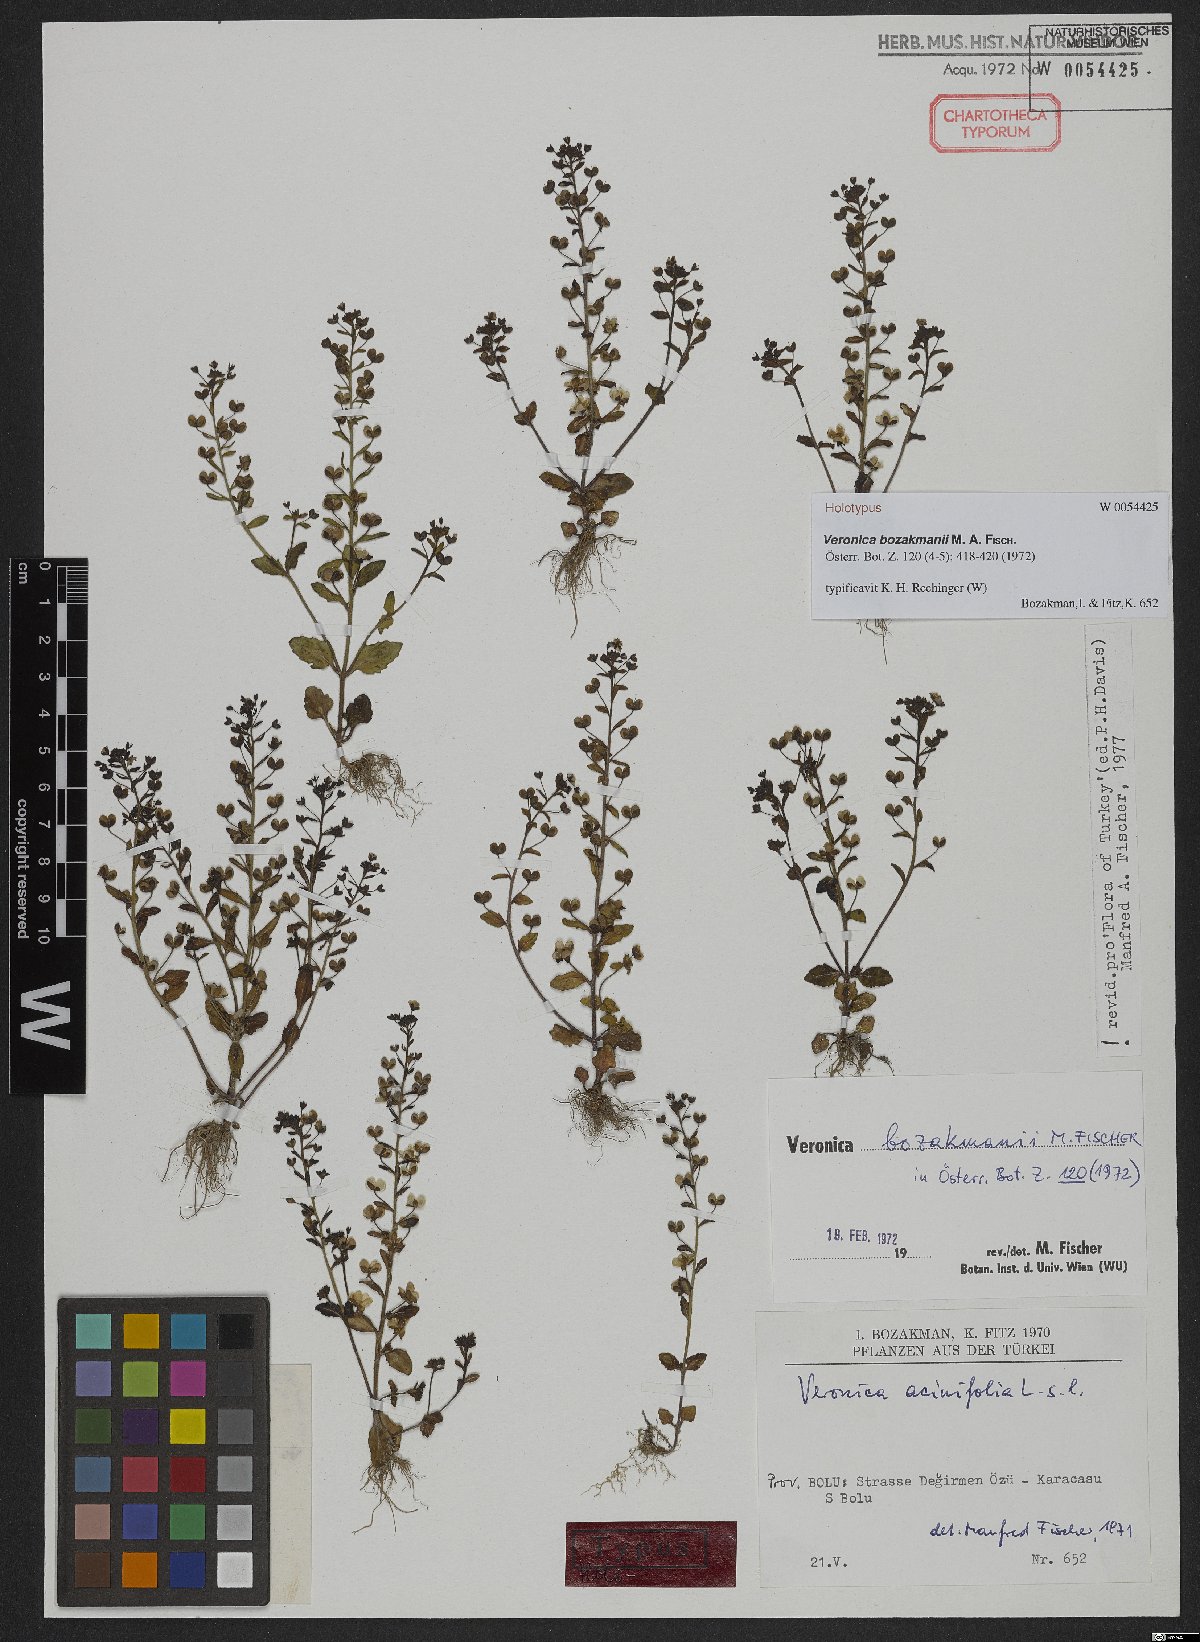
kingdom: Plantae
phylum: Tracheophyta
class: Magnoliopsida
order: Lamiales
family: Plantaginaceae
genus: Veronica
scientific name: Veronica bozakmanii
